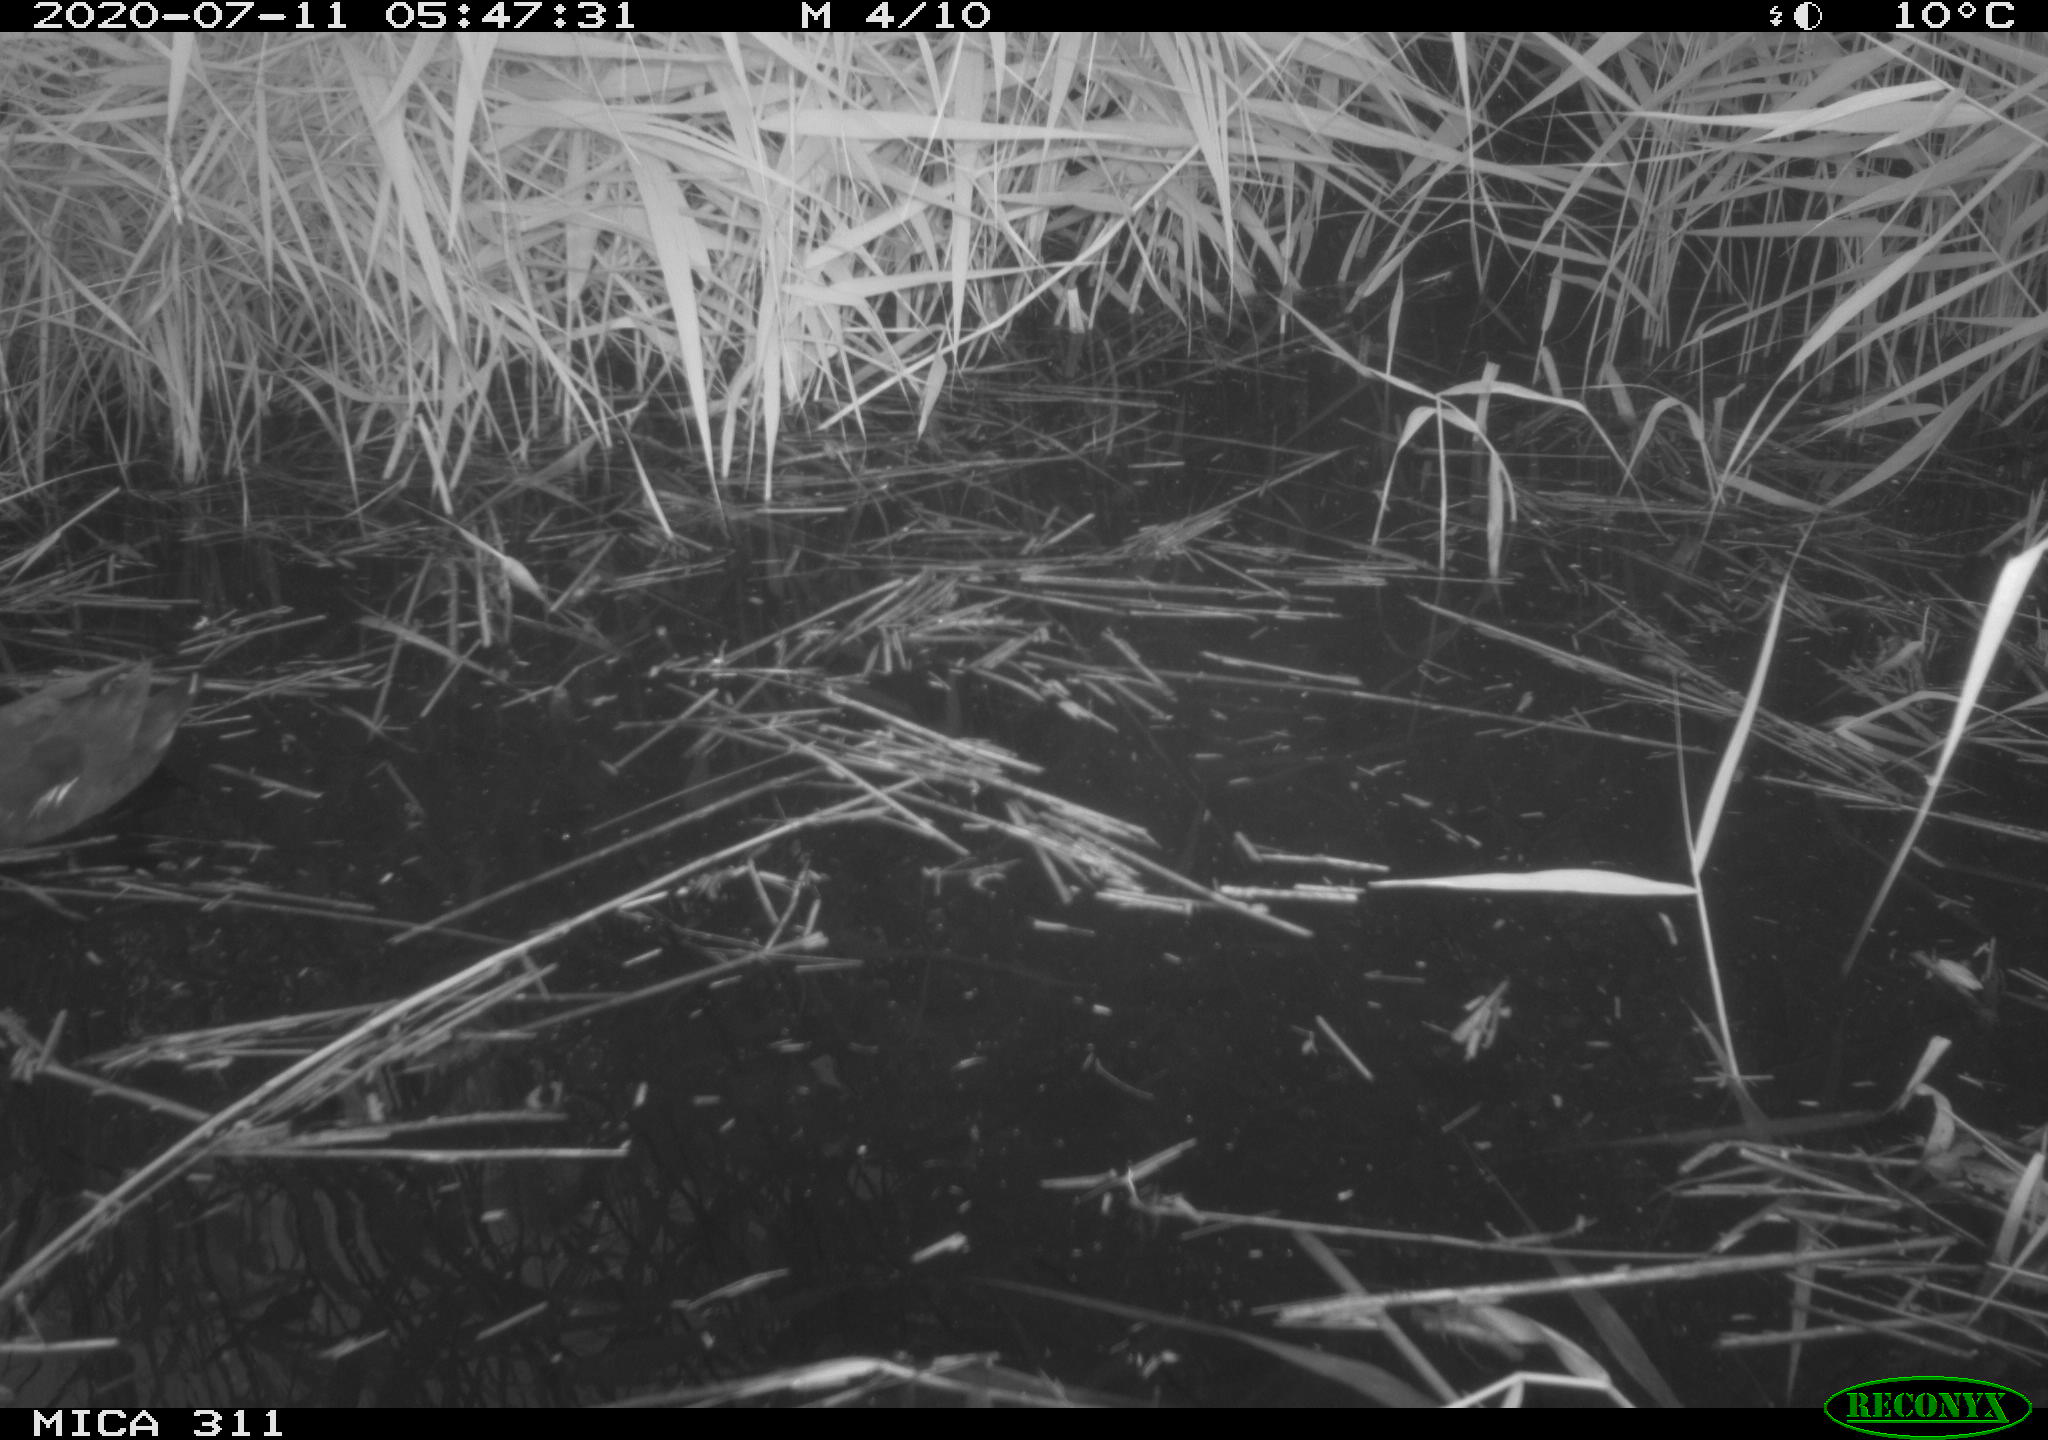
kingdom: Animalia
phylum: Chordata
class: Aves
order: Anseriformes
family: Anatidae
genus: Anas
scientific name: Anas platyrhynchos
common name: Mallard
